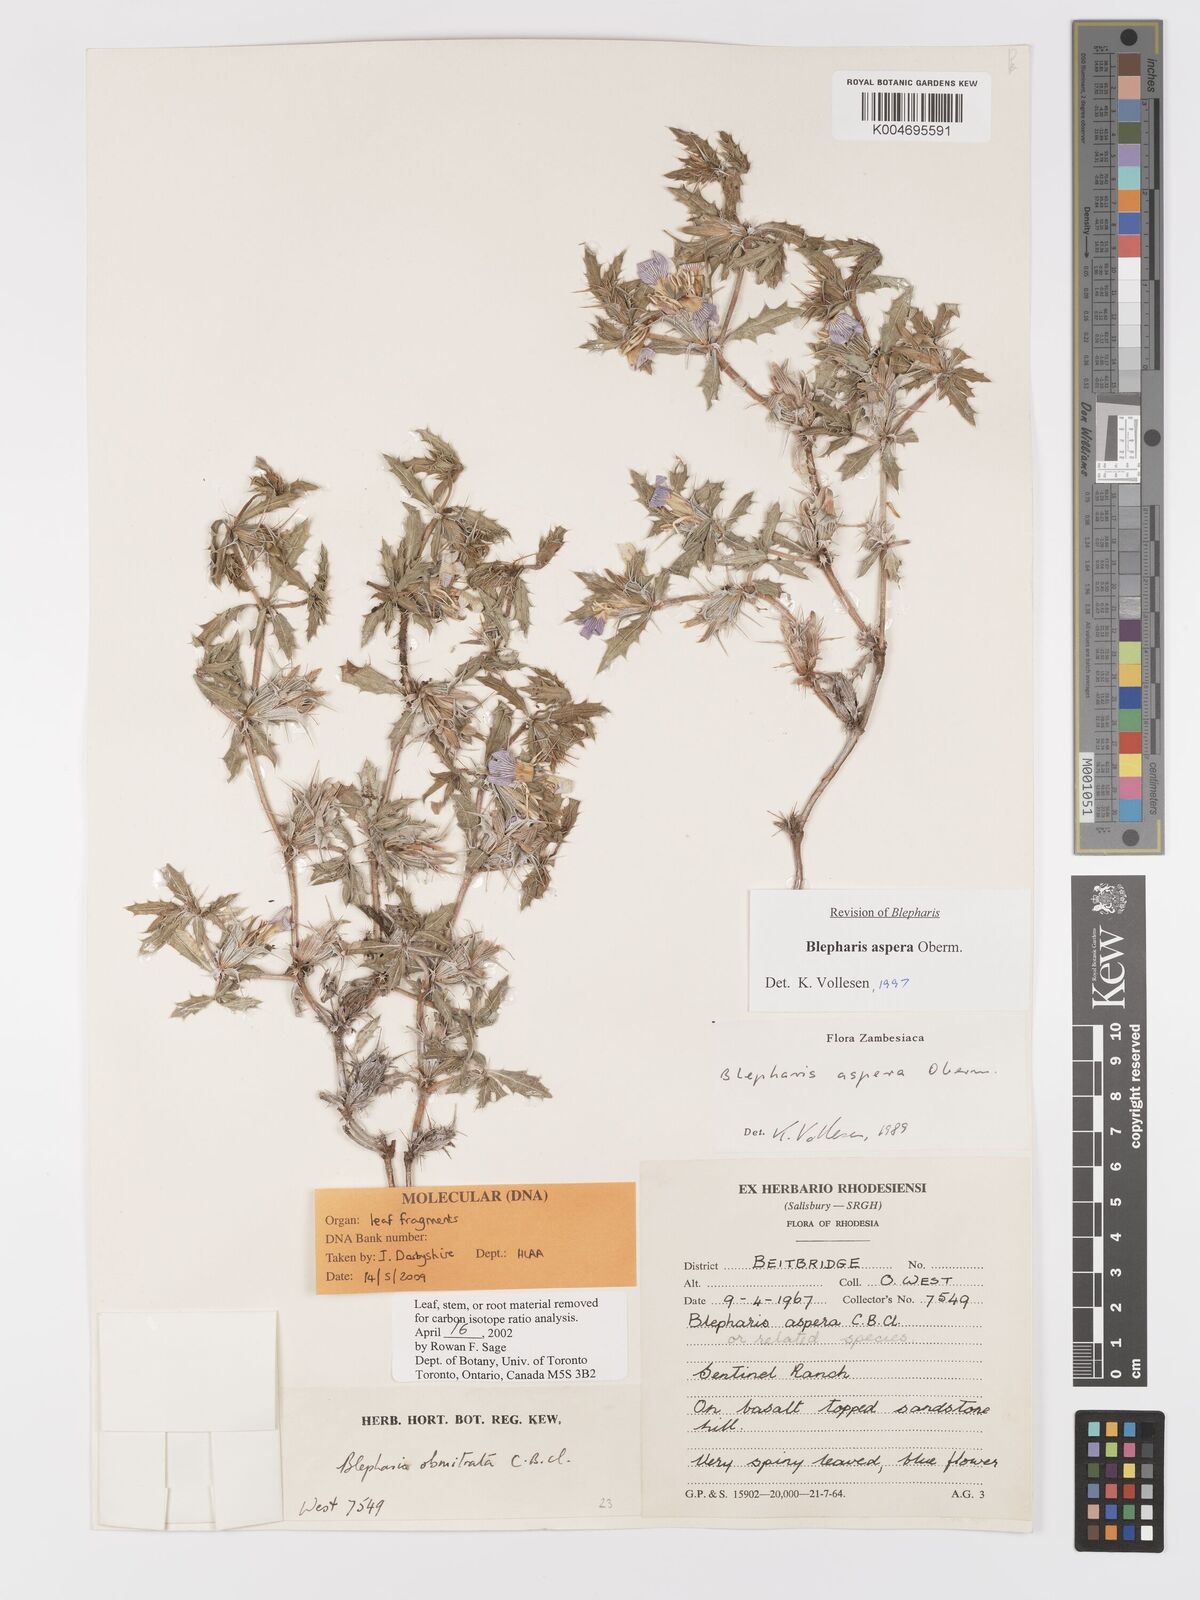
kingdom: Plantae
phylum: Tracheophyta
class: Magnoliopsida
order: Lamiales
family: Acanthaceae
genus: Blepharis
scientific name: Blepharis aspera
